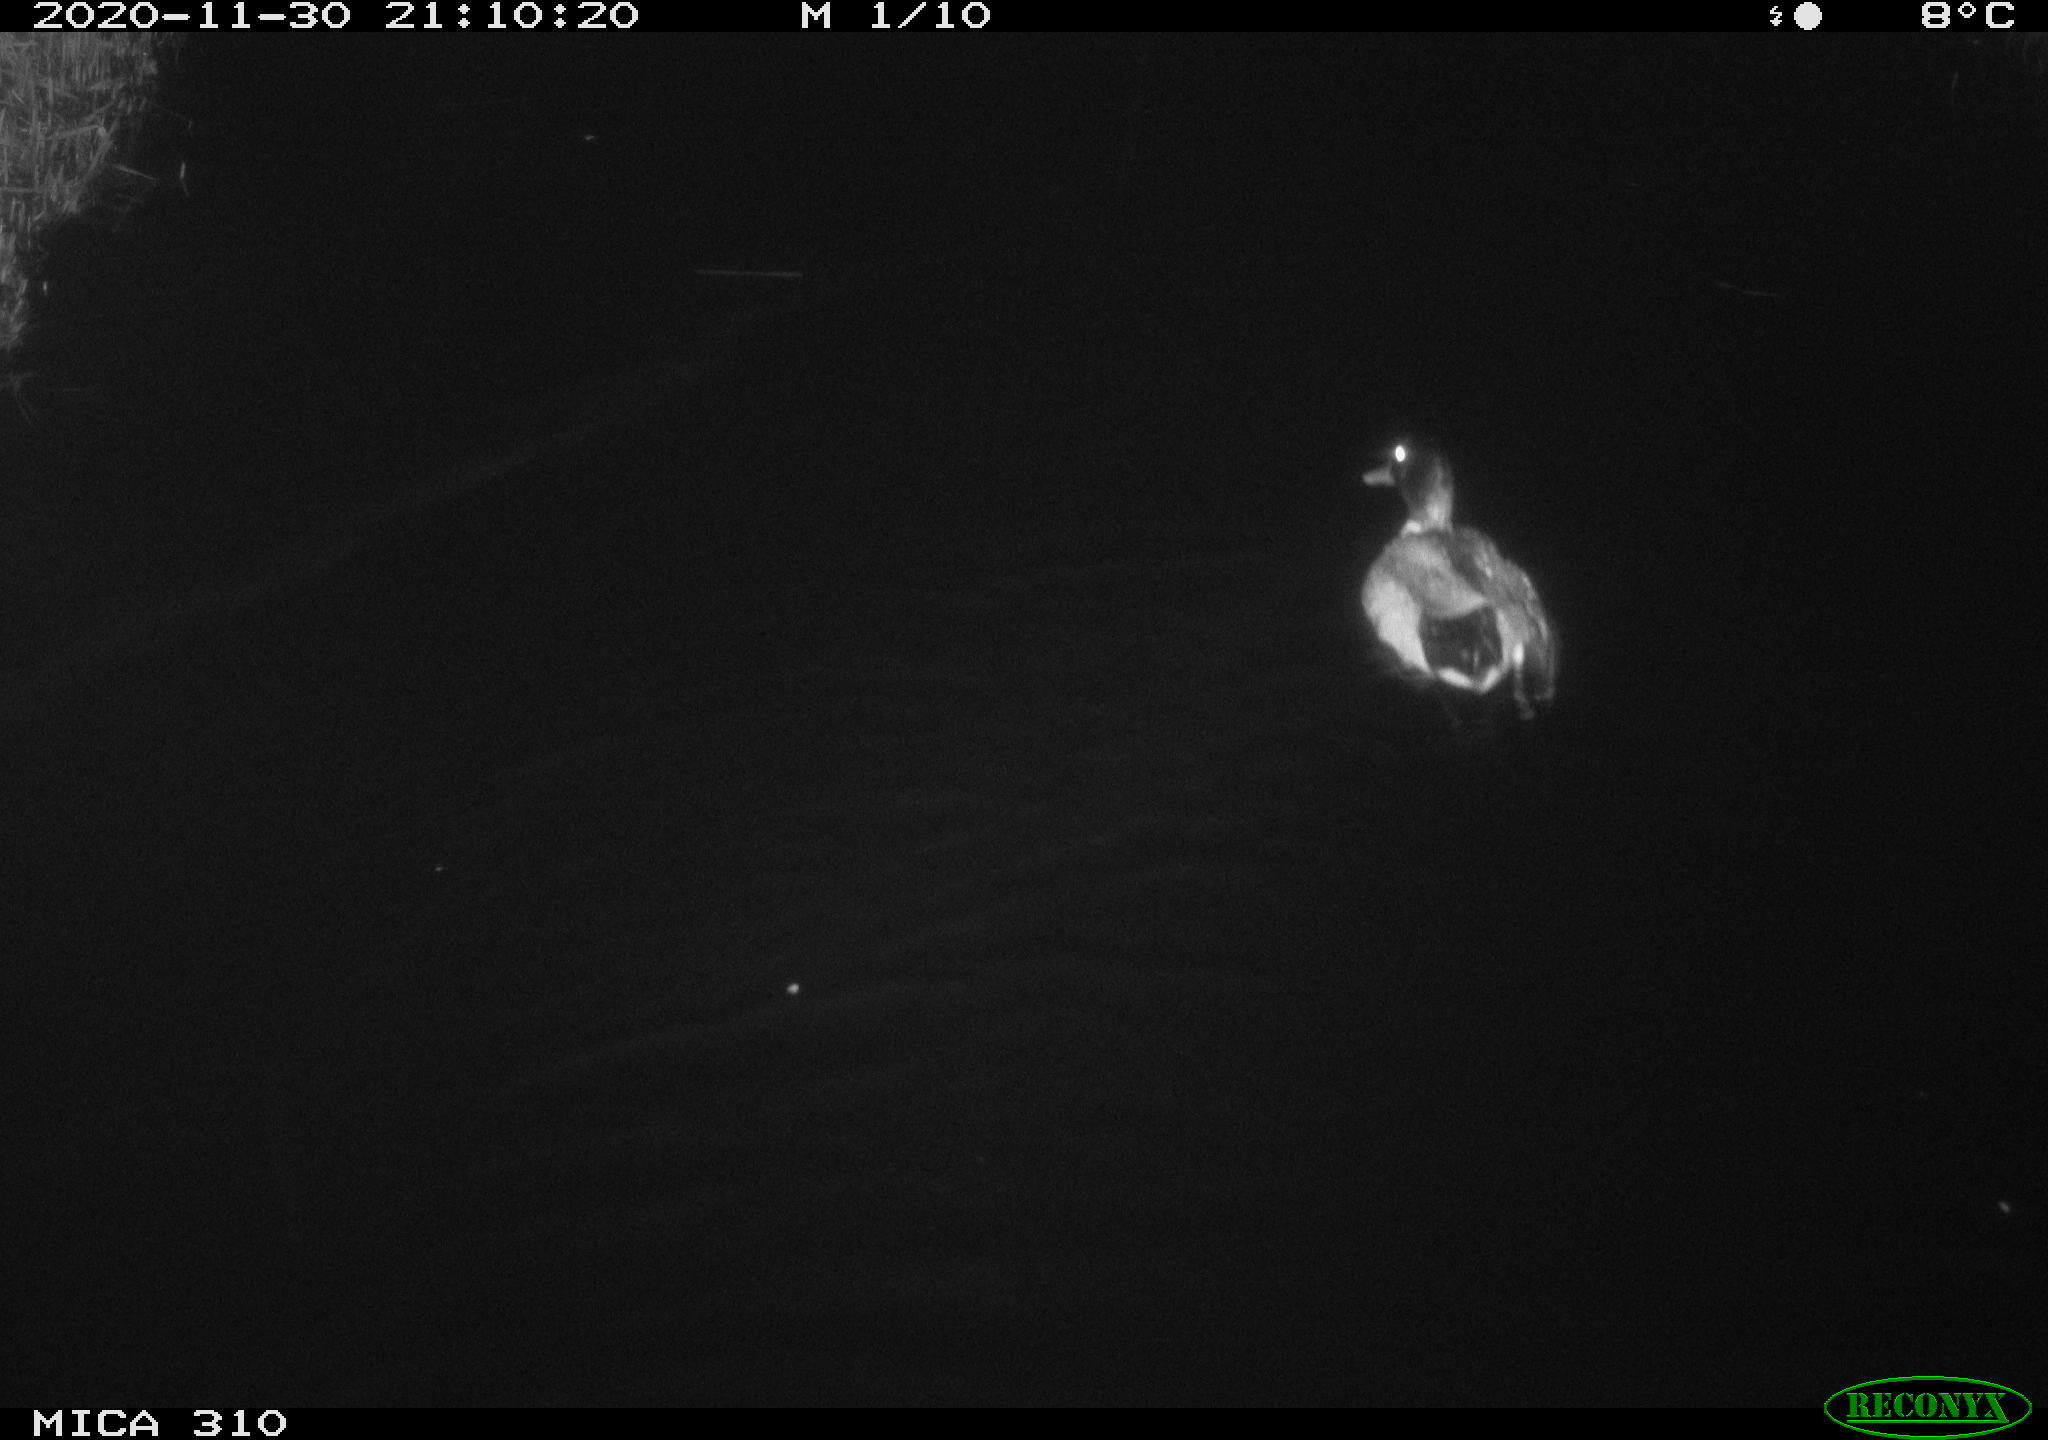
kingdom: Animalia
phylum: Chordata
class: Aves
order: Anseriformes
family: Anatidae
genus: Anas
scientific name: Anas platyrhynchos
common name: Mallard
